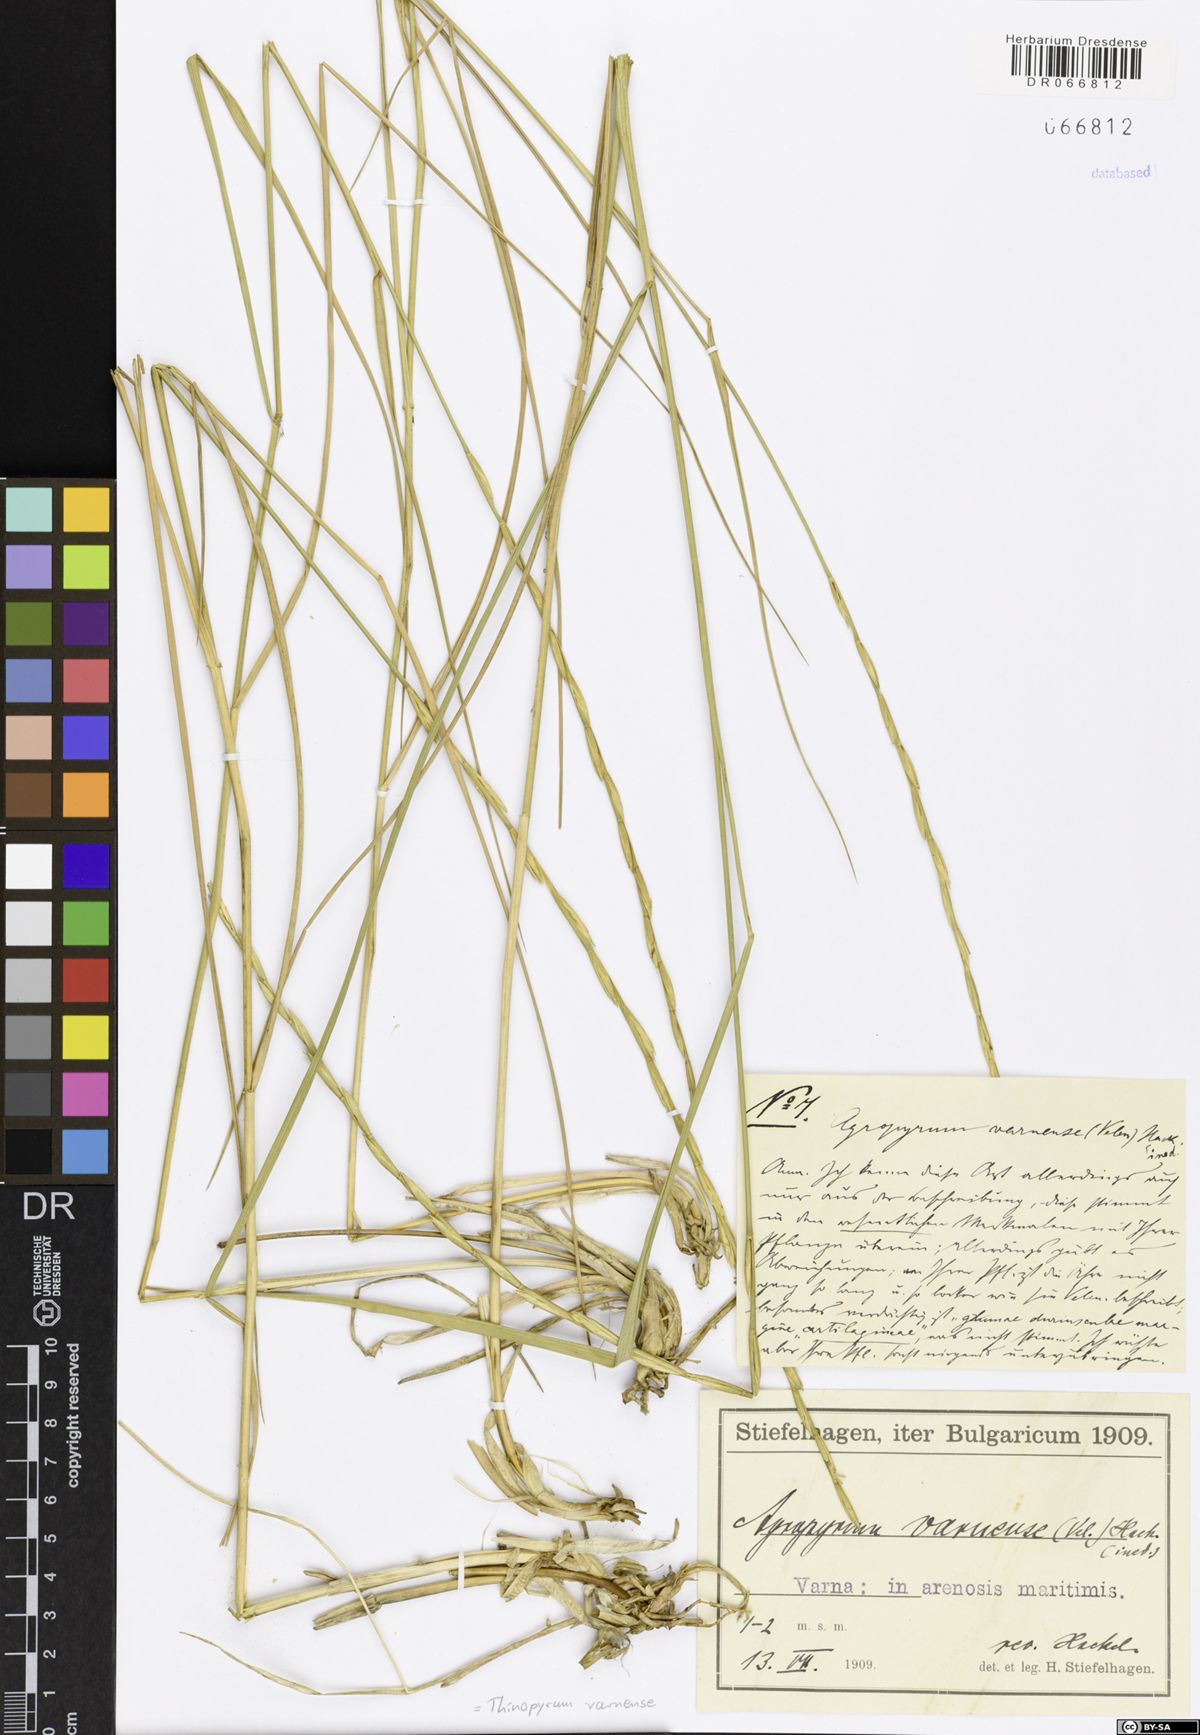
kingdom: Plantae
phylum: Tracheophyta
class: Liliopsida
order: Poales
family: Poaceae
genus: Thinopyrum
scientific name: Thinopyrum varnense
